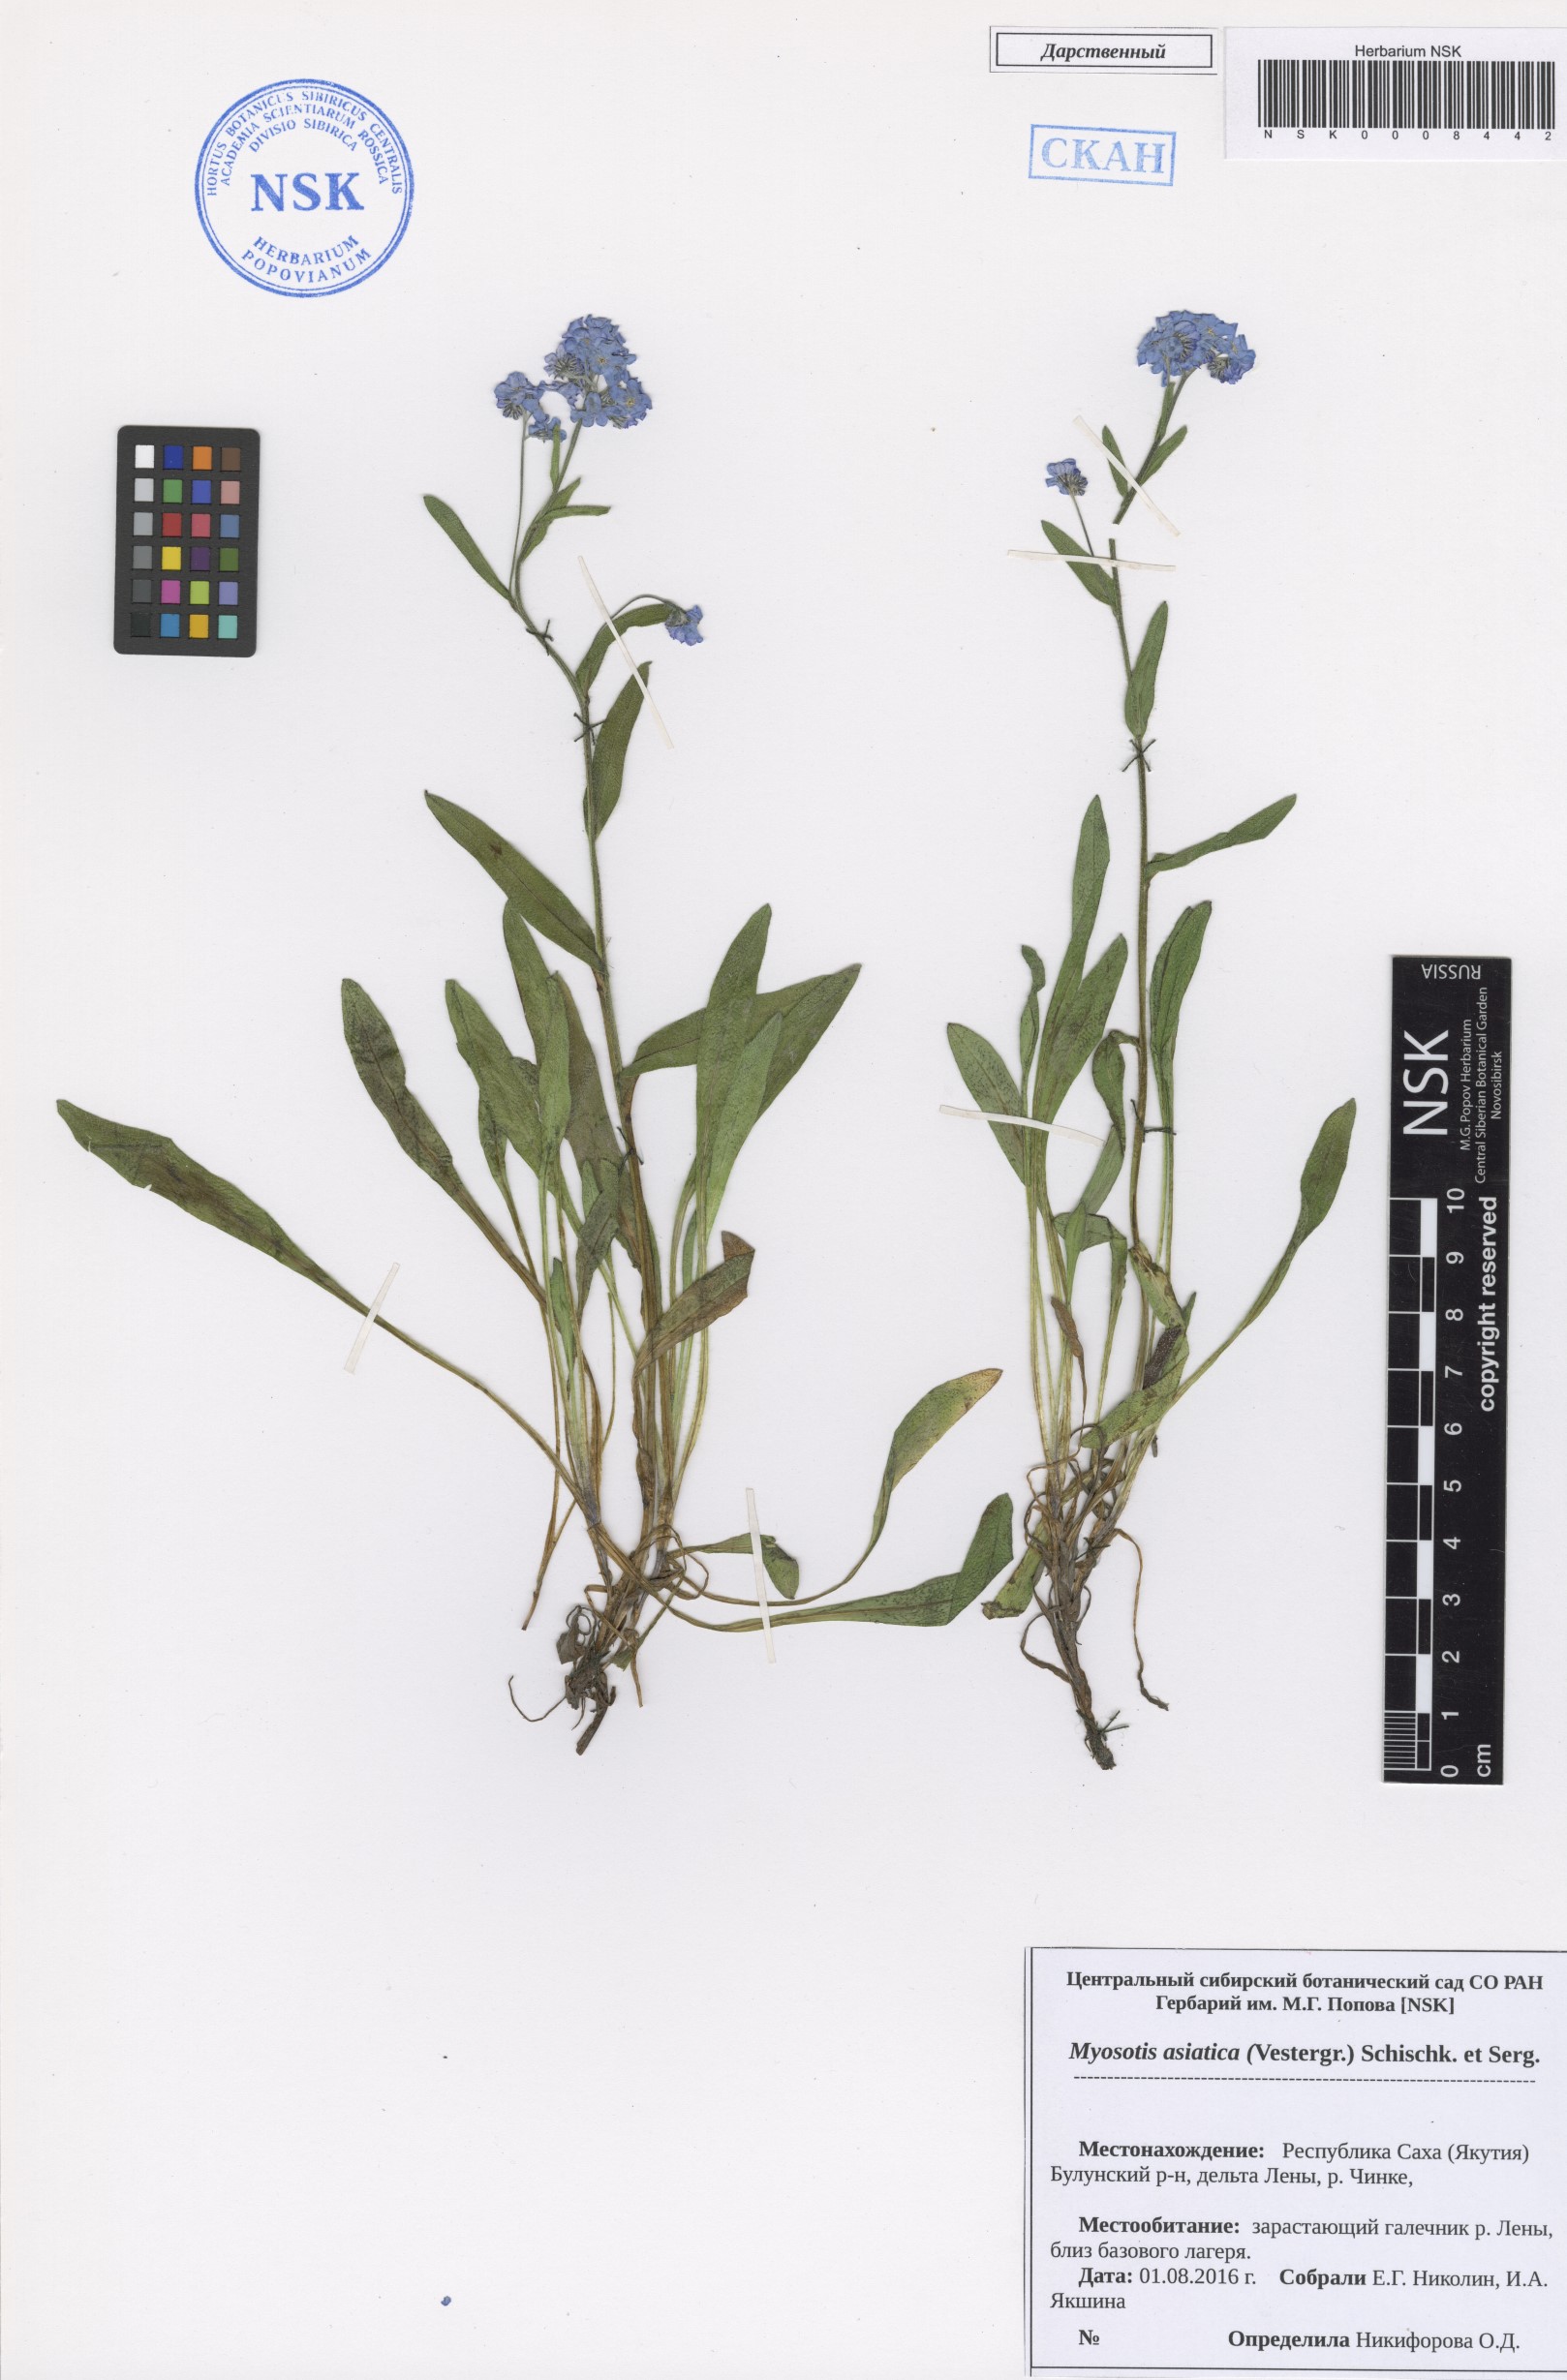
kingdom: Plantae
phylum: Tracheophyta
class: Magnoliopsida
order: Boraginales
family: Boraginaceae
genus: Myosotis
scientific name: Myosotis asiatica
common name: Asian forget-me-not
